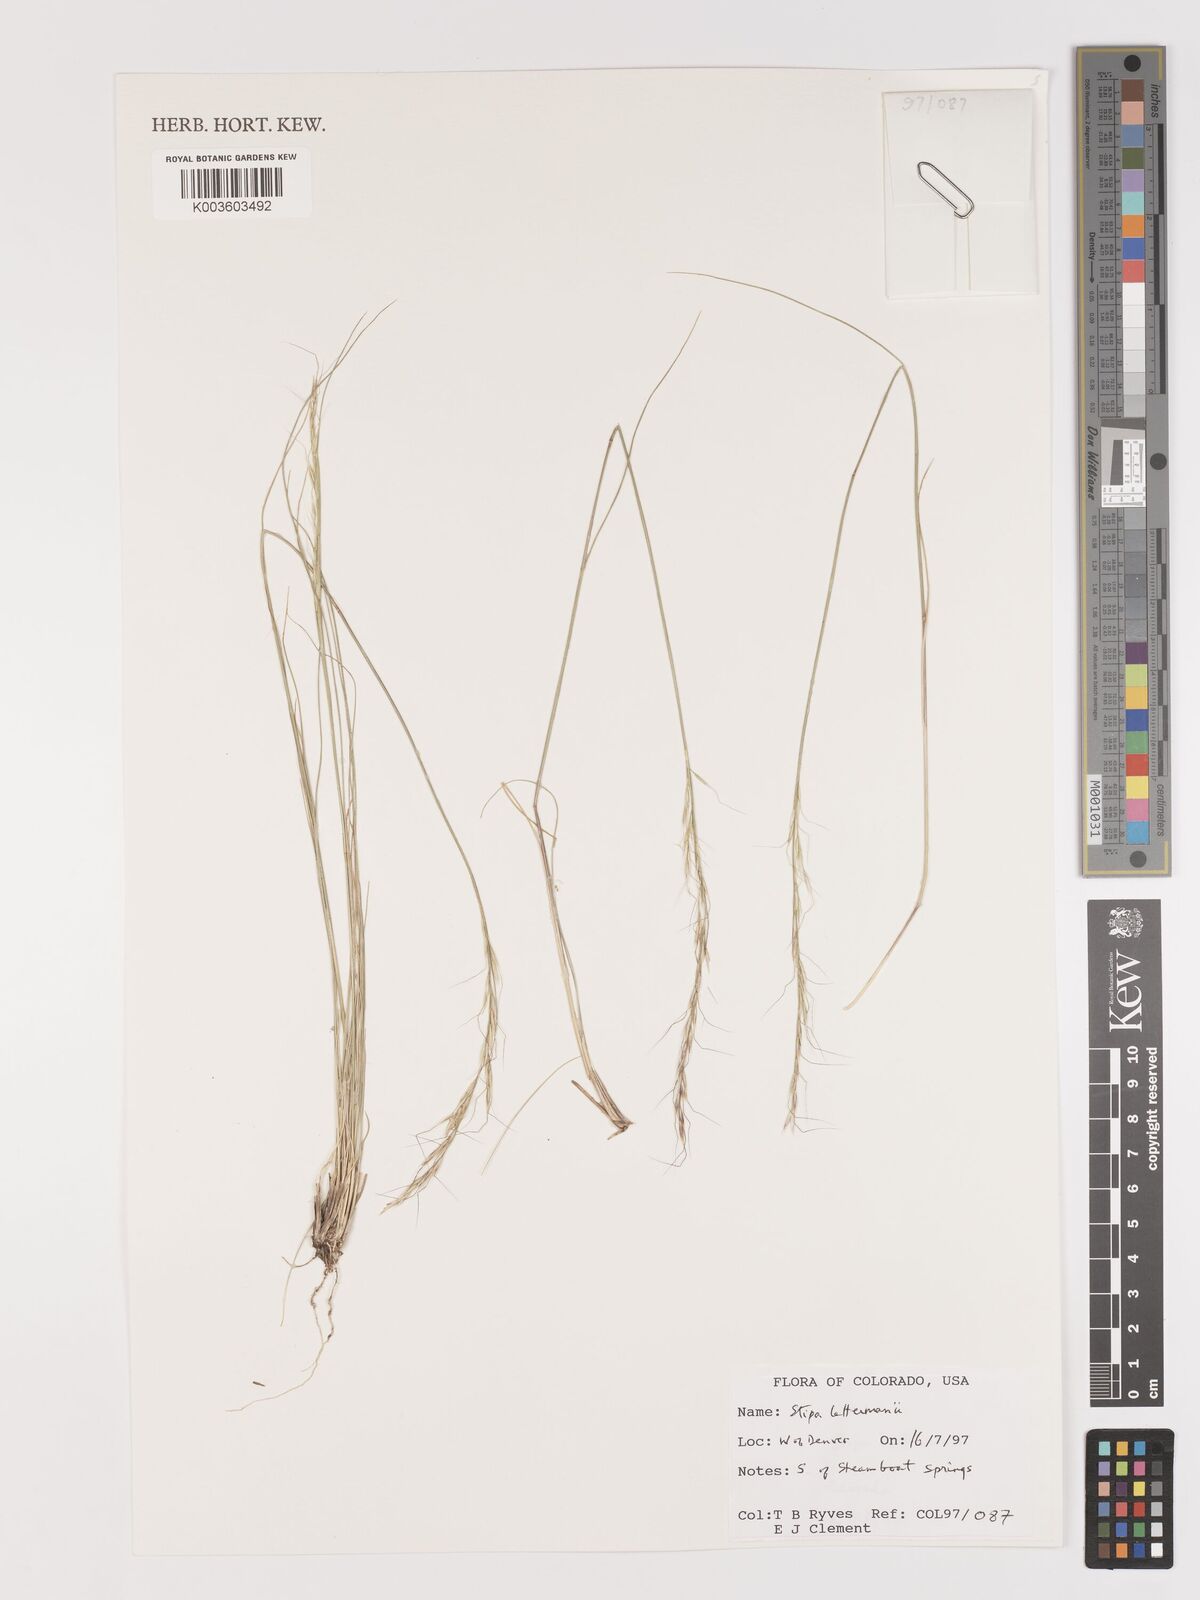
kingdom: Plantae
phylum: Tracheophyta
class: Liliopsida
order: Poales
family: Poaceae
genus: Eriocoma
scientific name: Eriocoma lettermanii
